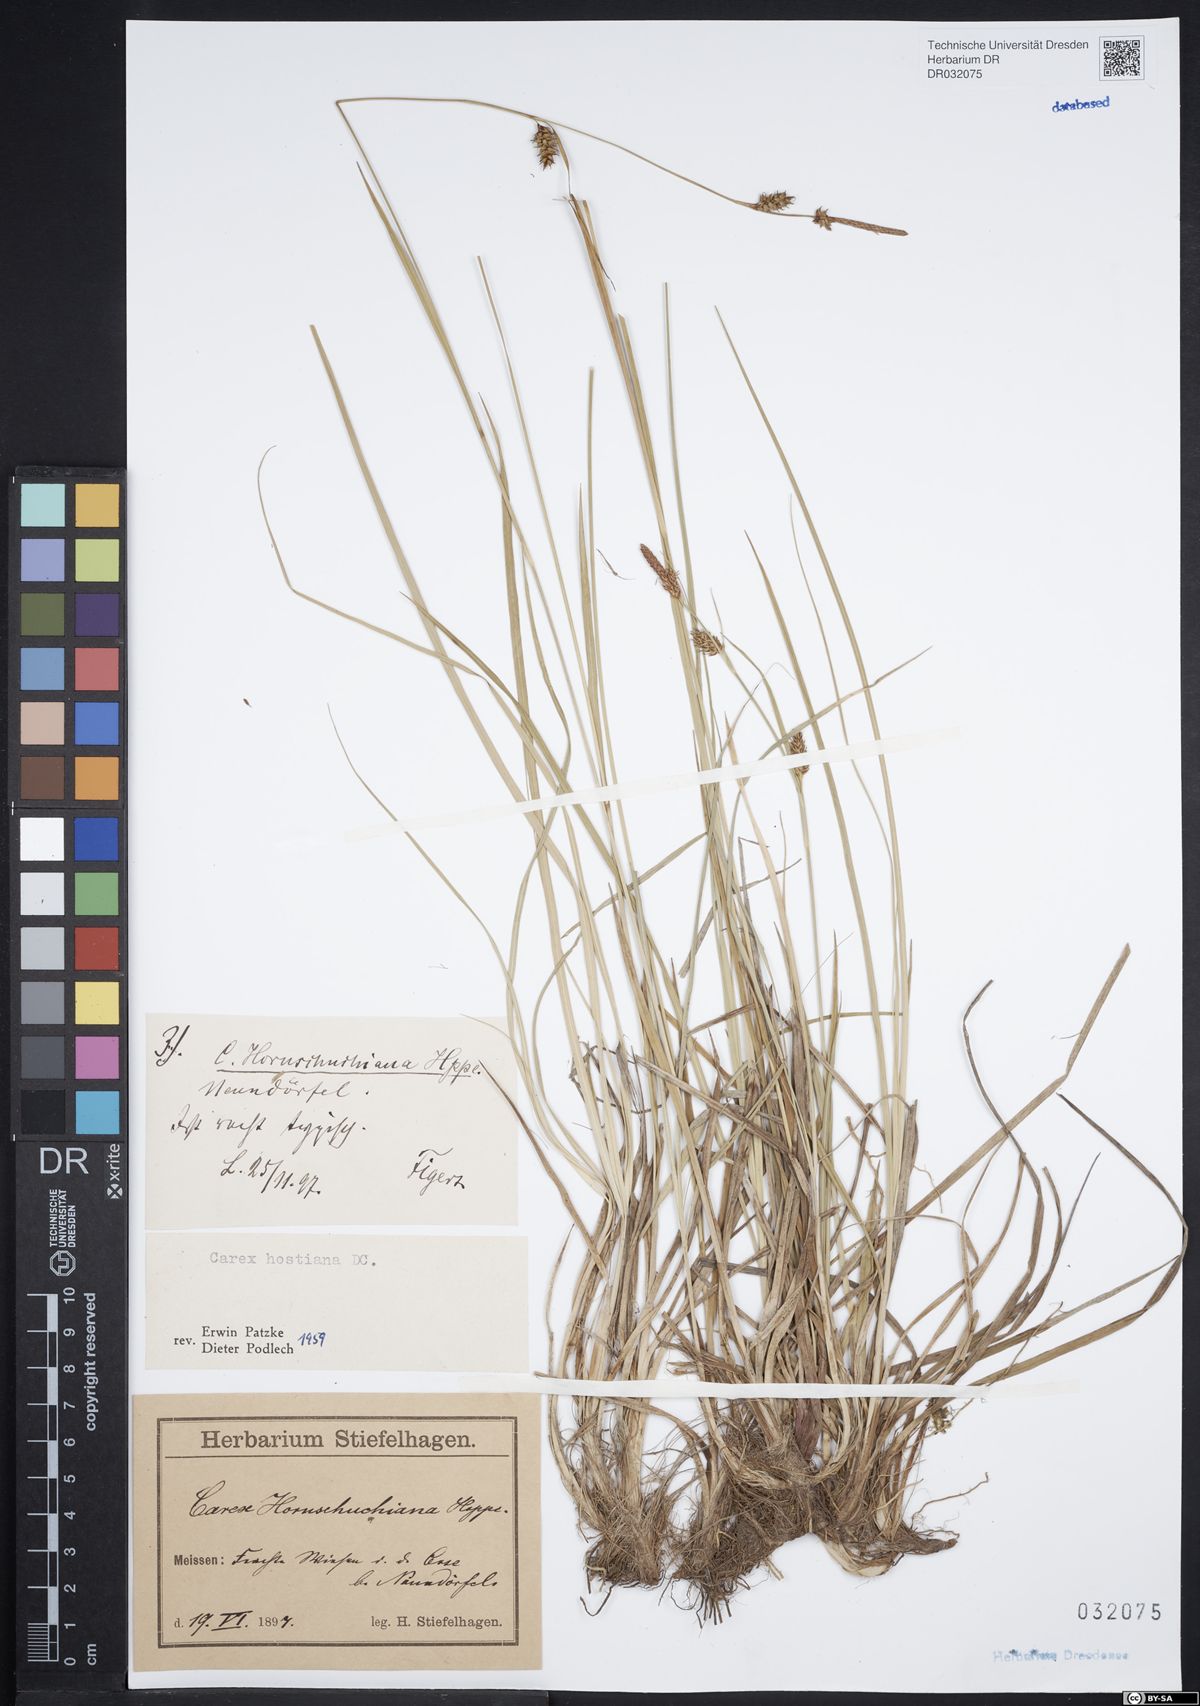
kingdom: Plantae
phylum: Tracheophyta
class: Liliopsida
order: Poales
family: Cyperaceae
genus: Carex
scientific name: Carex hostiana
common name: Tawny sedge
